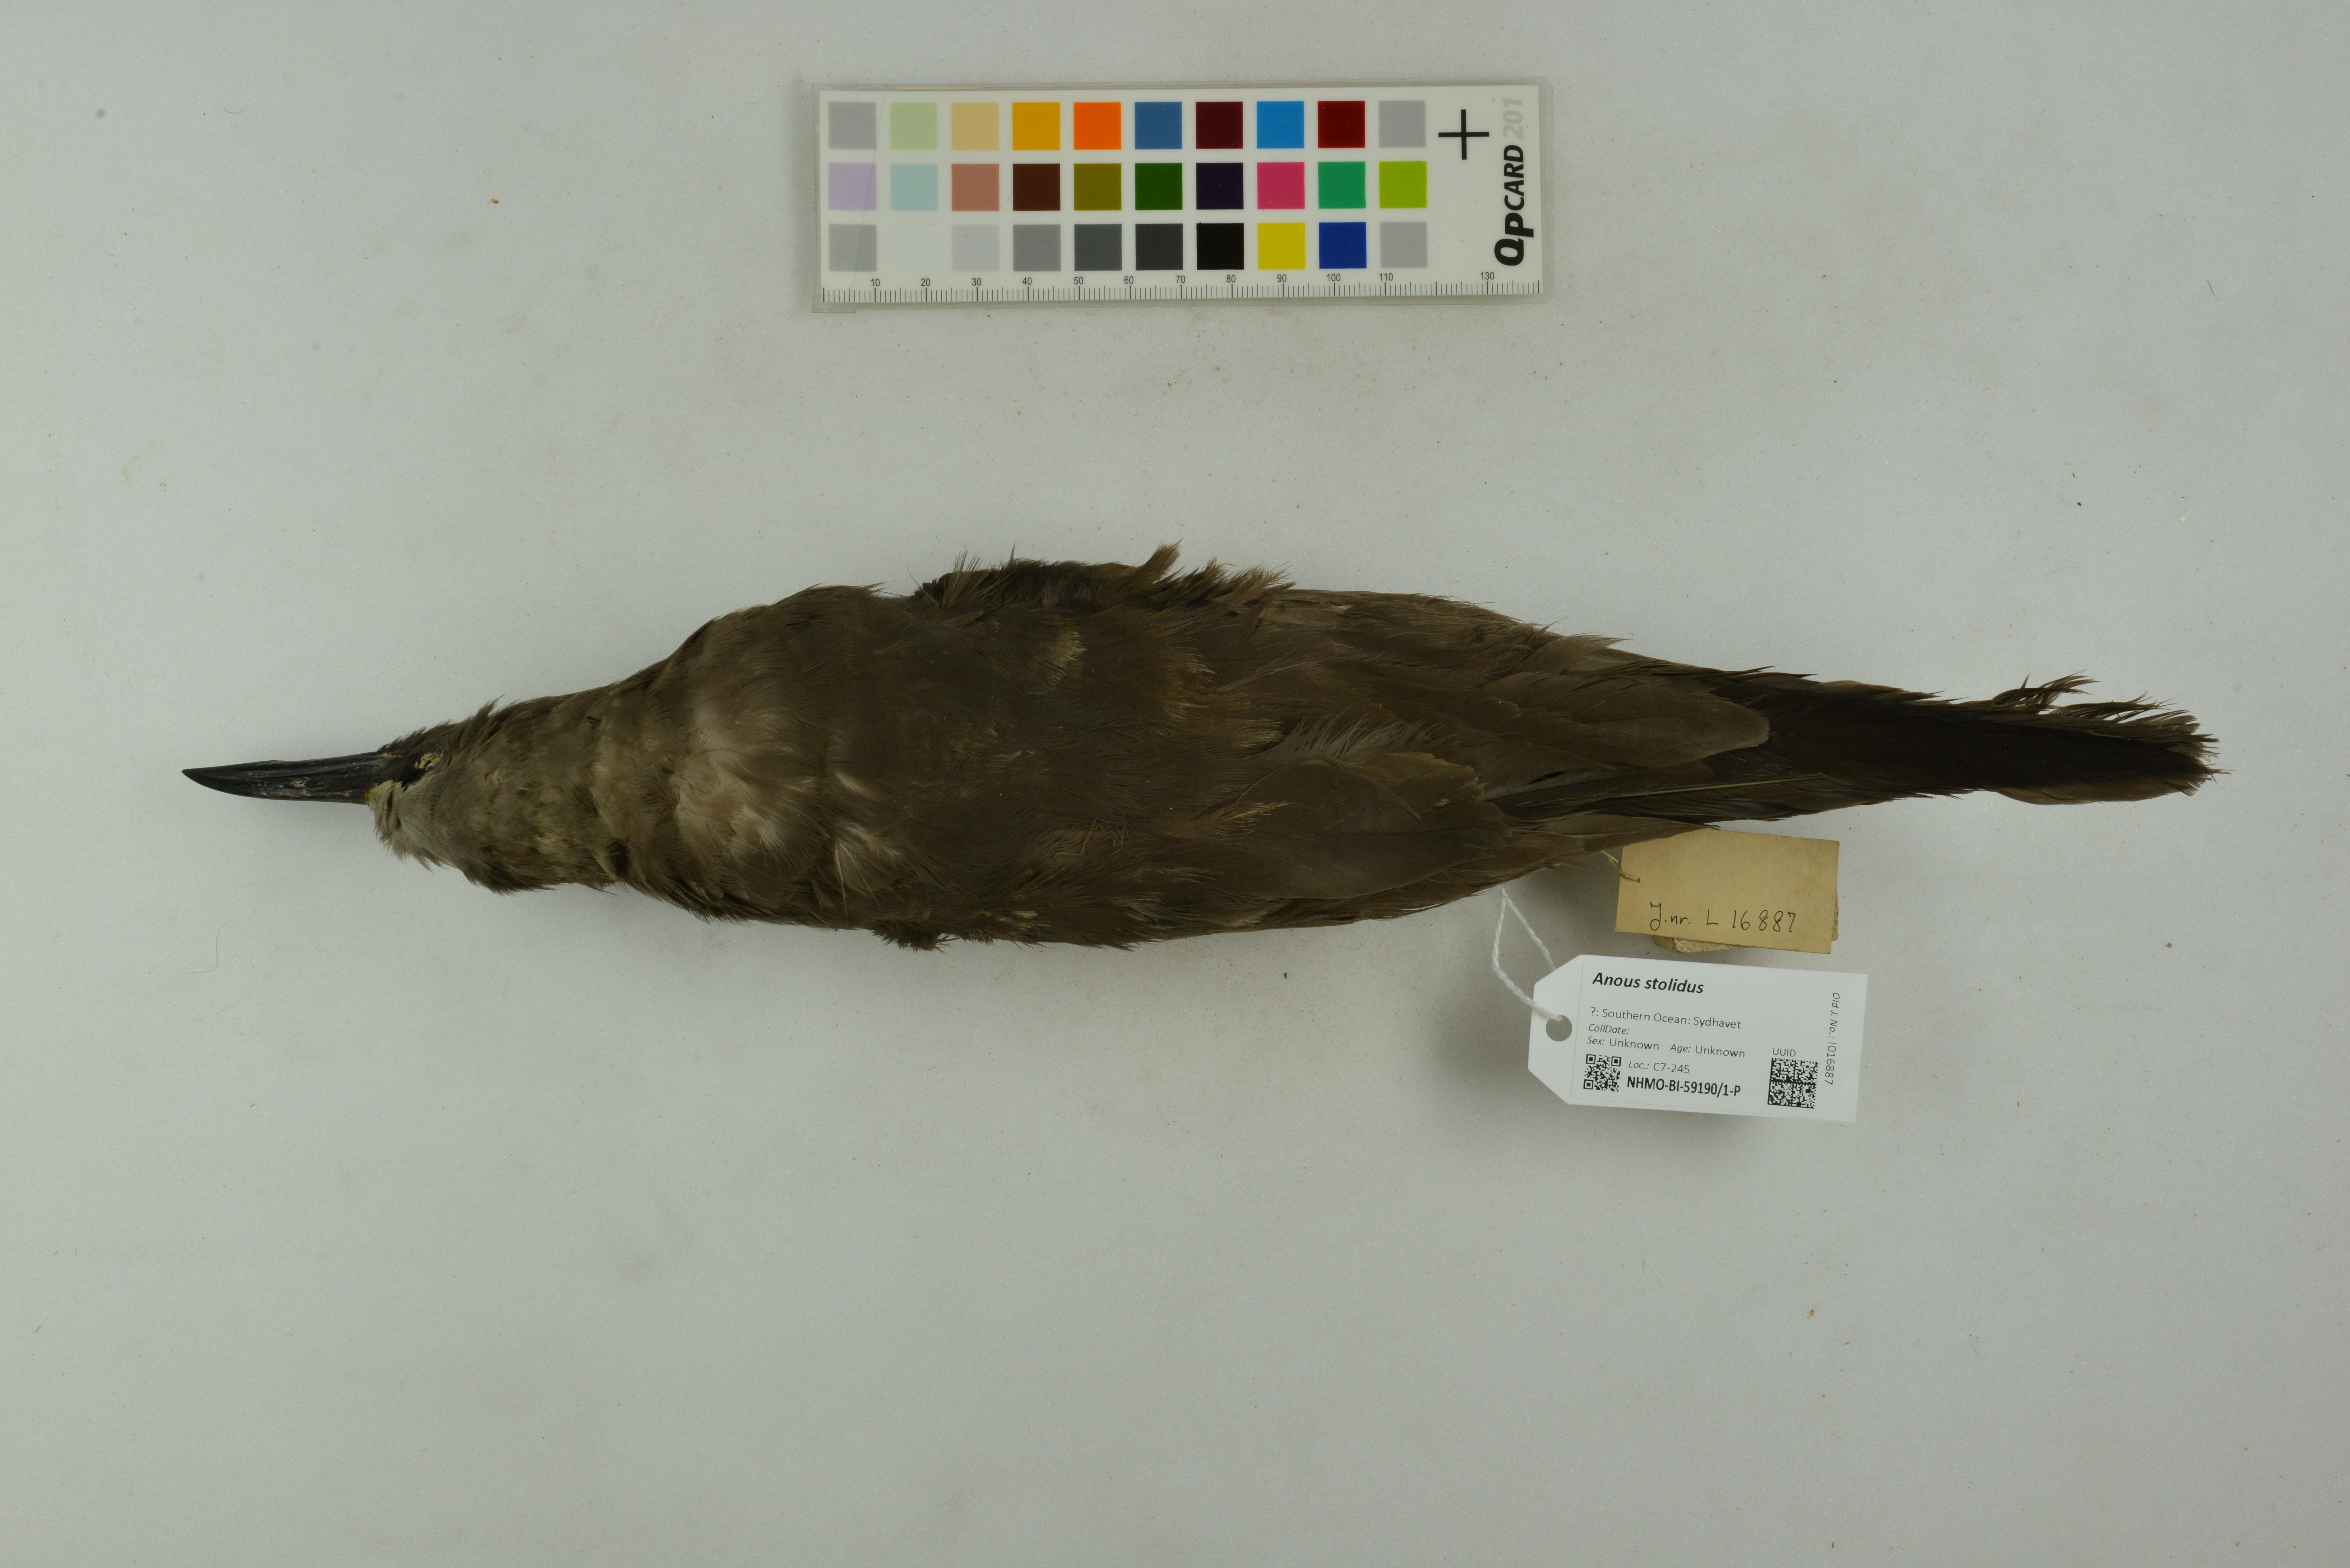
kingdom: Animalia
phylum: Chordata
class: Aves
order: Charadriiformes
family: Laridae
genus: Anous
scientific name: Anous stolidus
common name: Brown noddy
